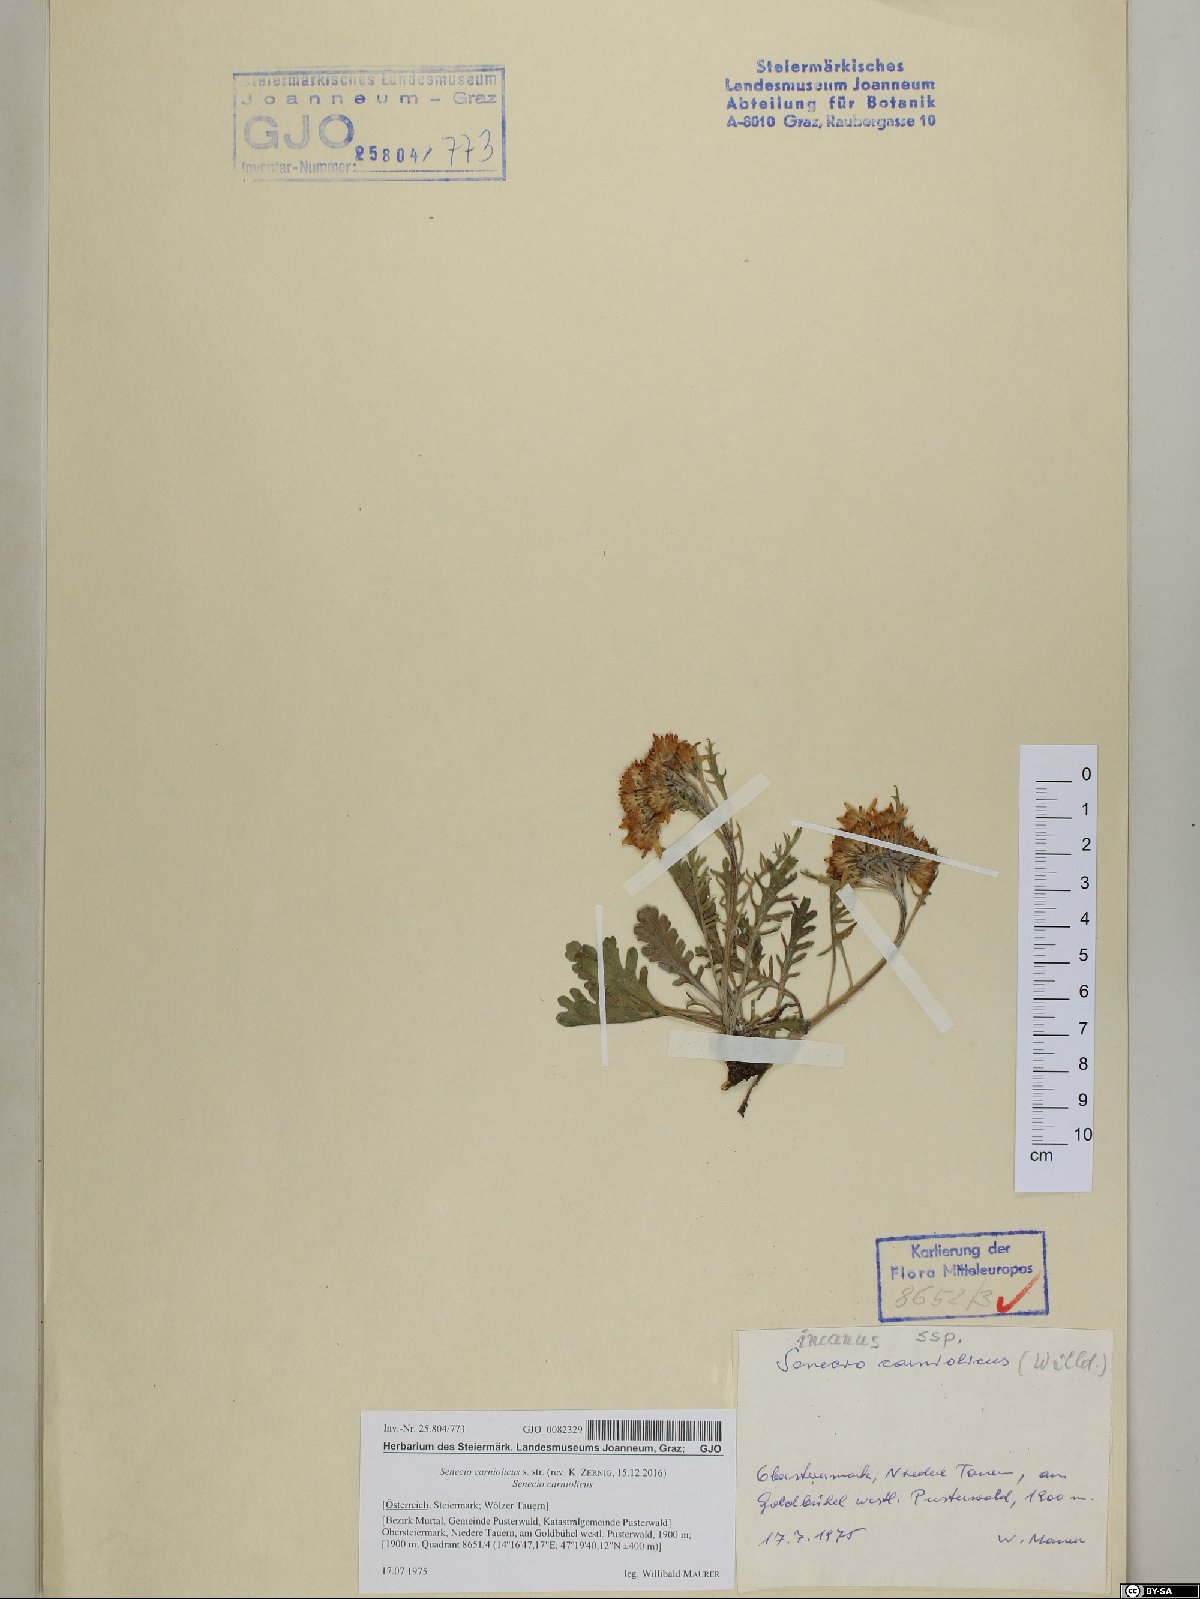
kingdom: Plantae
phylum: Tracheophyta
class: Magnoliopsida
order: Asterales
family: Asteraceae
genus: Jacobaea
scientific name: Jacobaea carniolica
